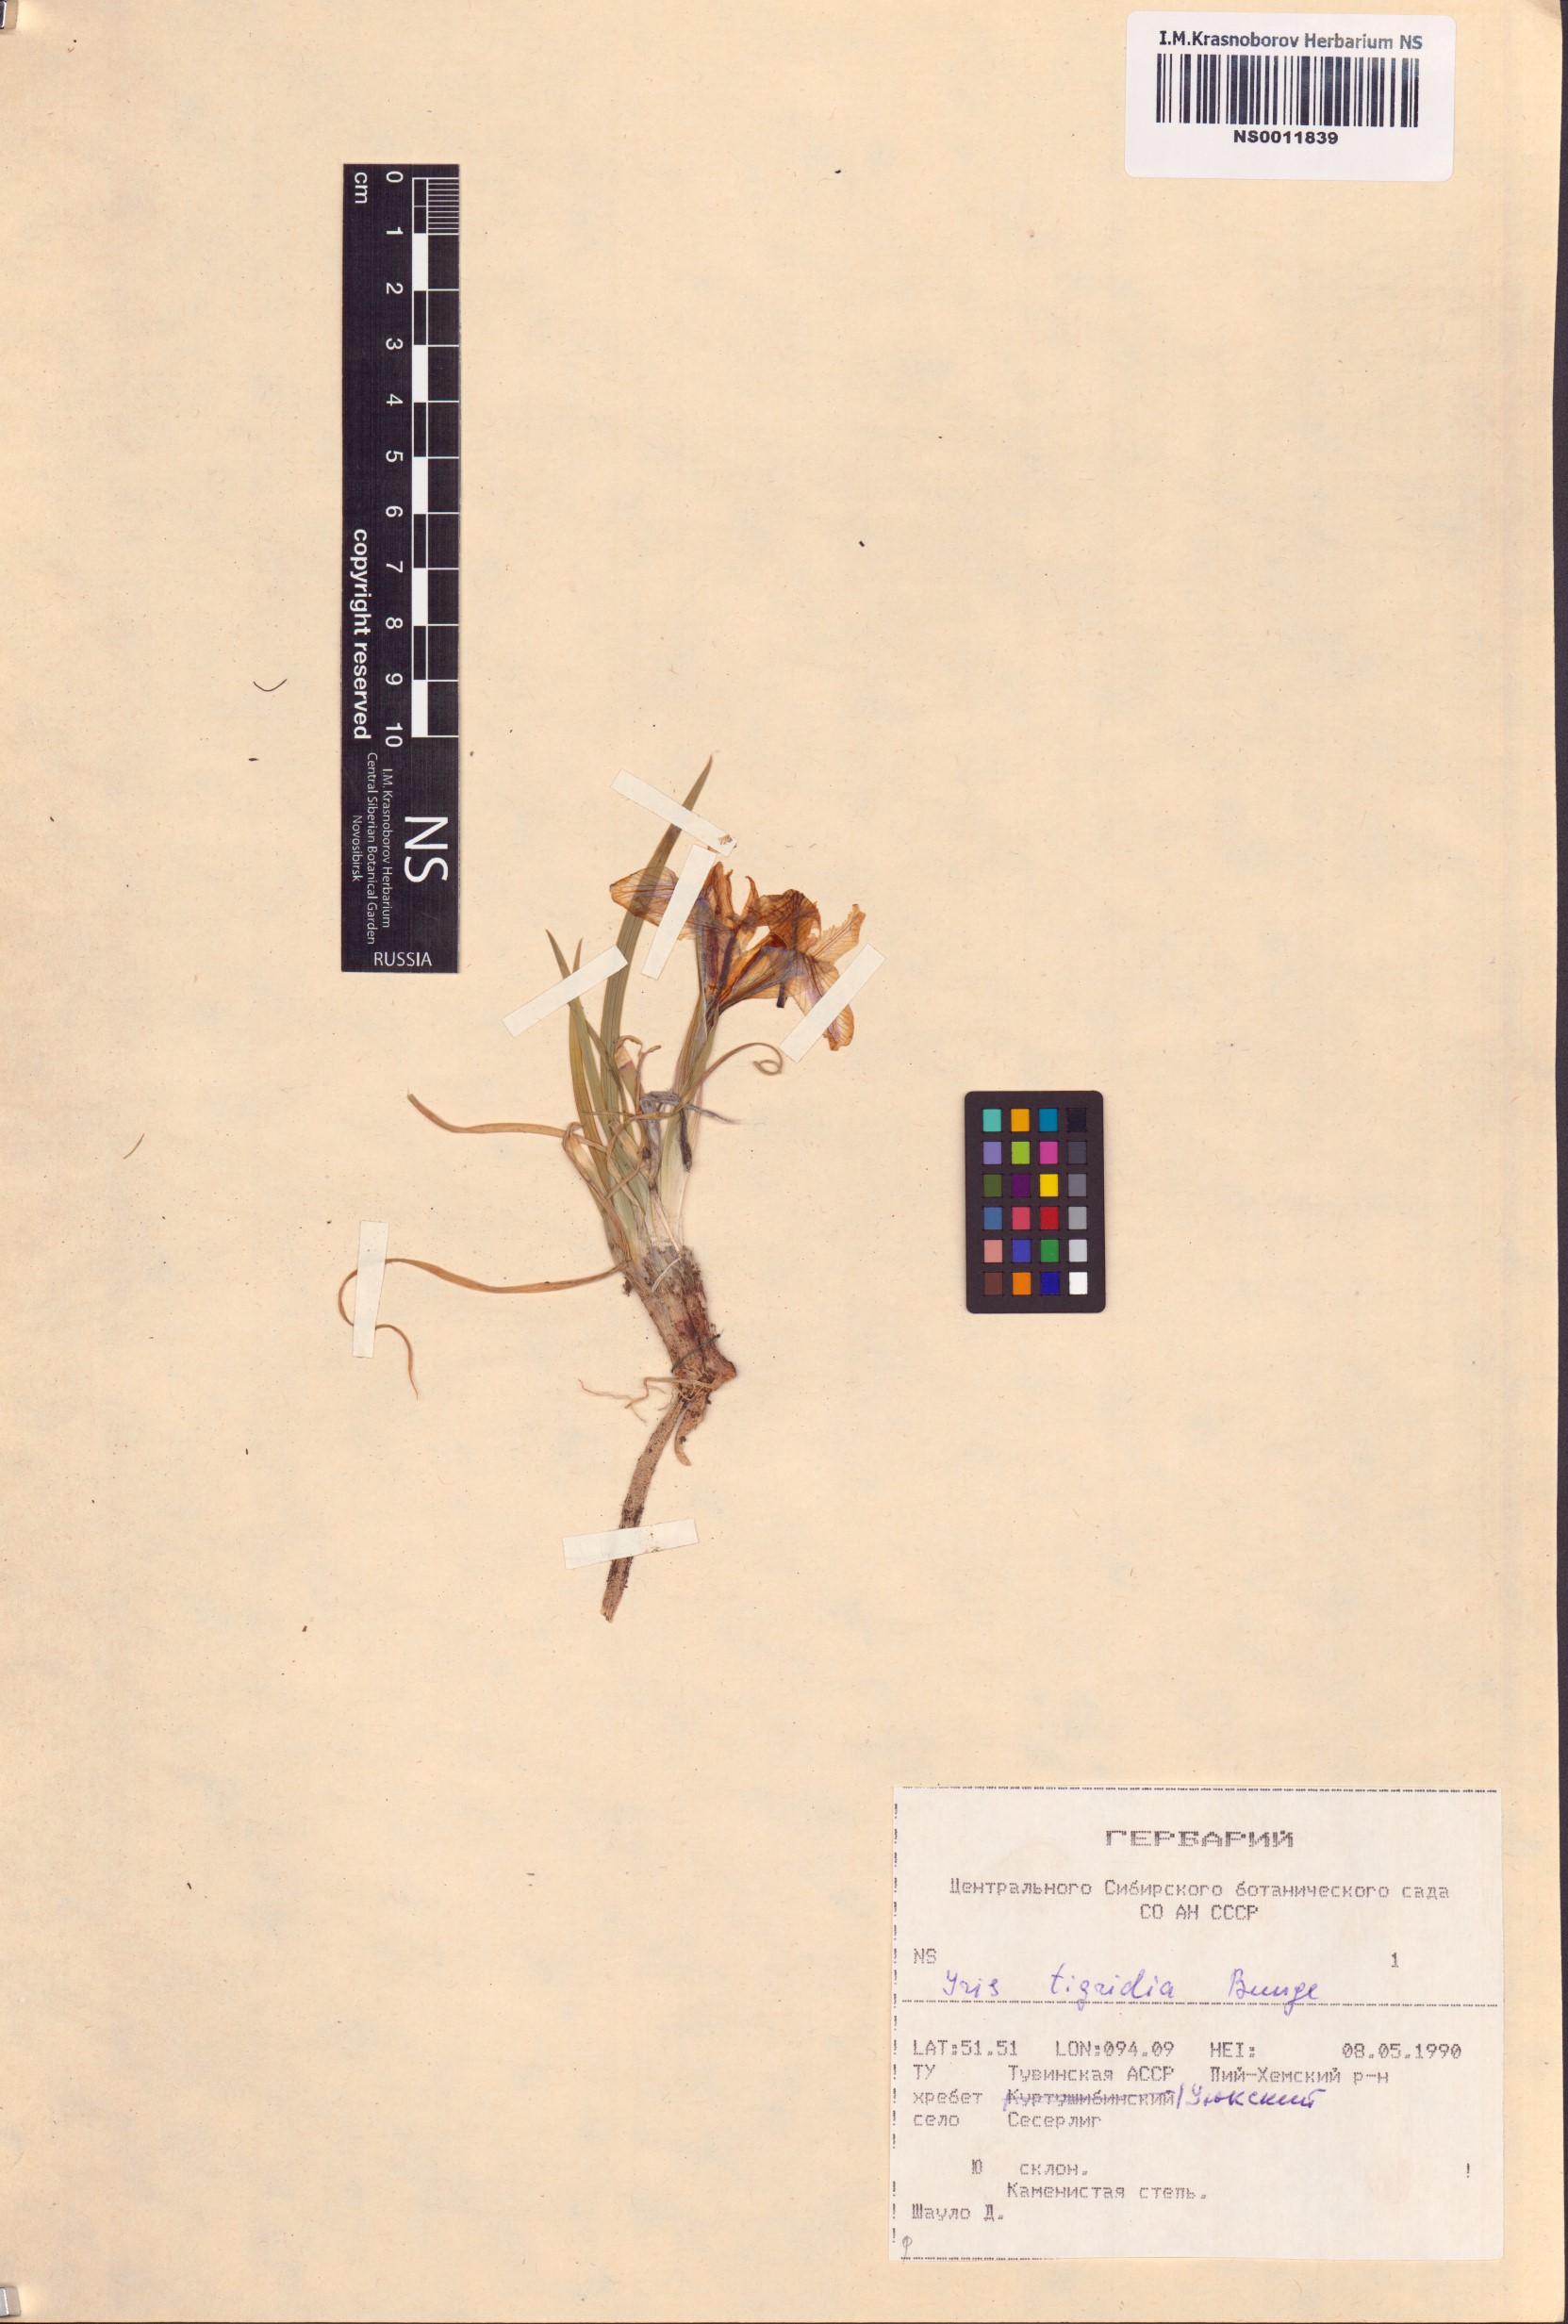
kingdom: Plantae
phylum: Tracheophyta
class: Liliopsida
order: Asparagales
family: Iridaceae
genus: Iris
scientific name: Iris tigridia
